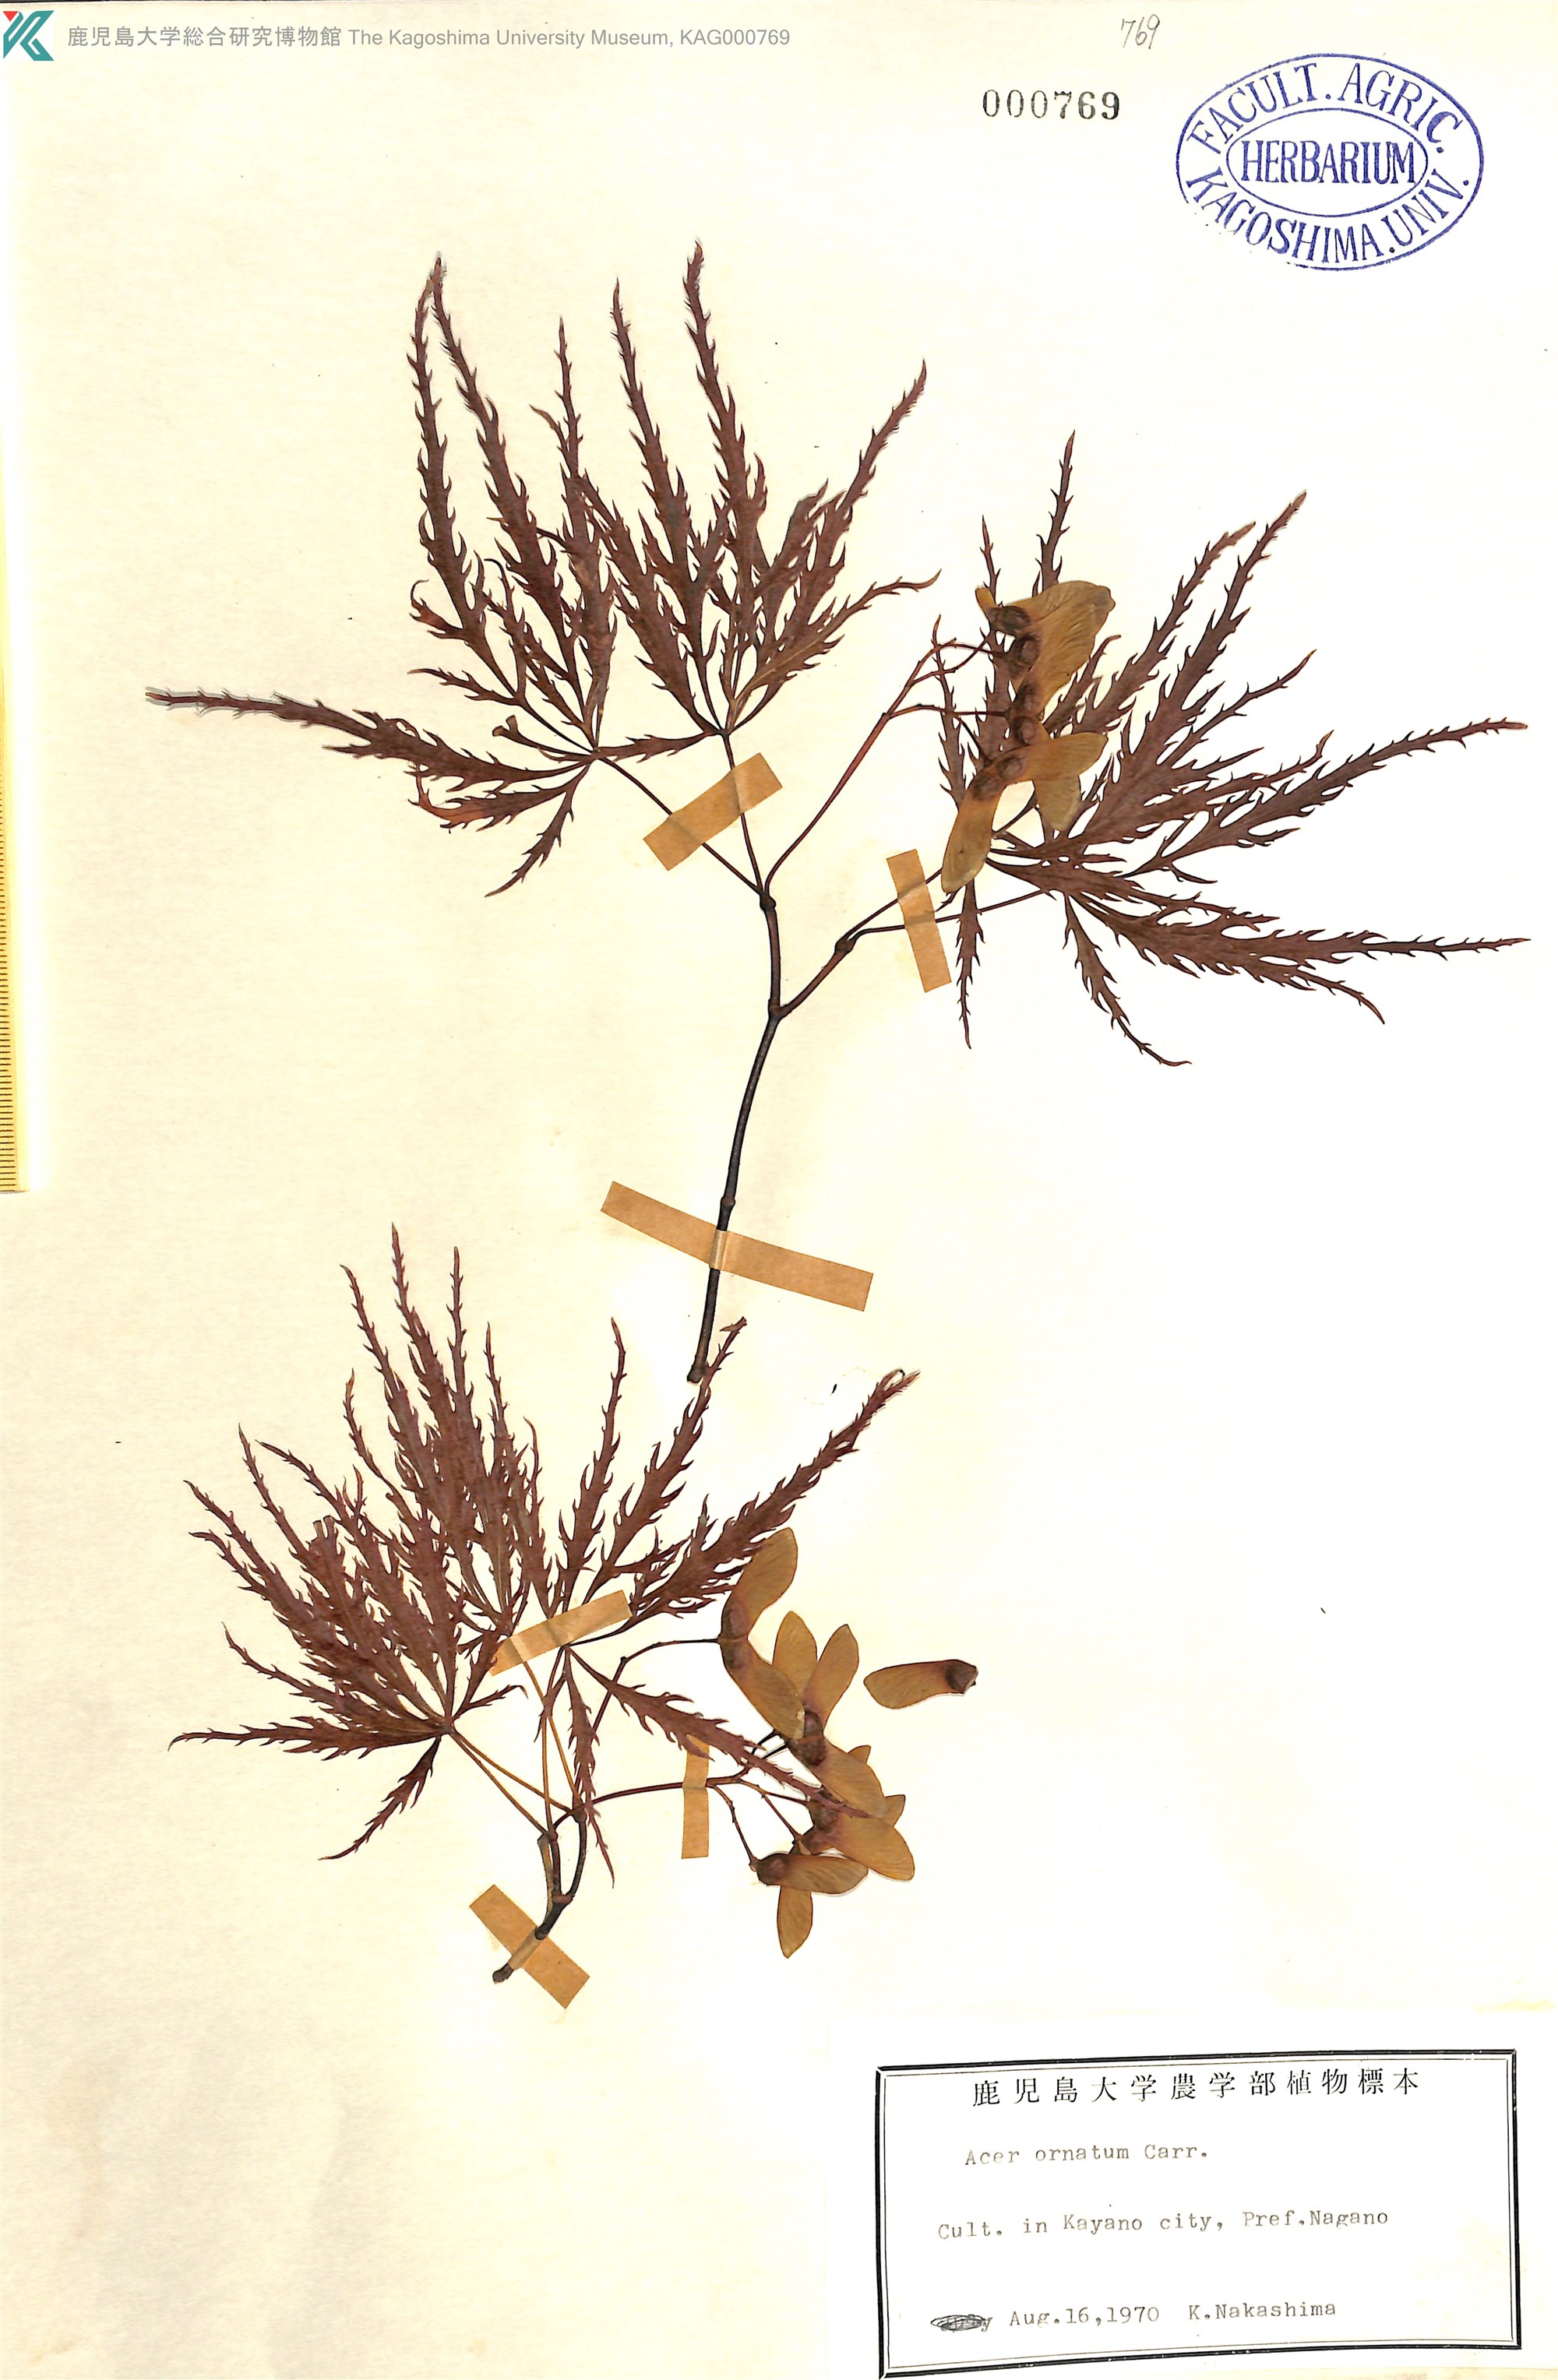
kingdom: Plantae
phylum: Tracheophyta
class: Magnoliopsida
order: Sapindales
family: Sapindaceae
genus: Acer
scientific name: Acer palmatum
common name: Japanese maple
